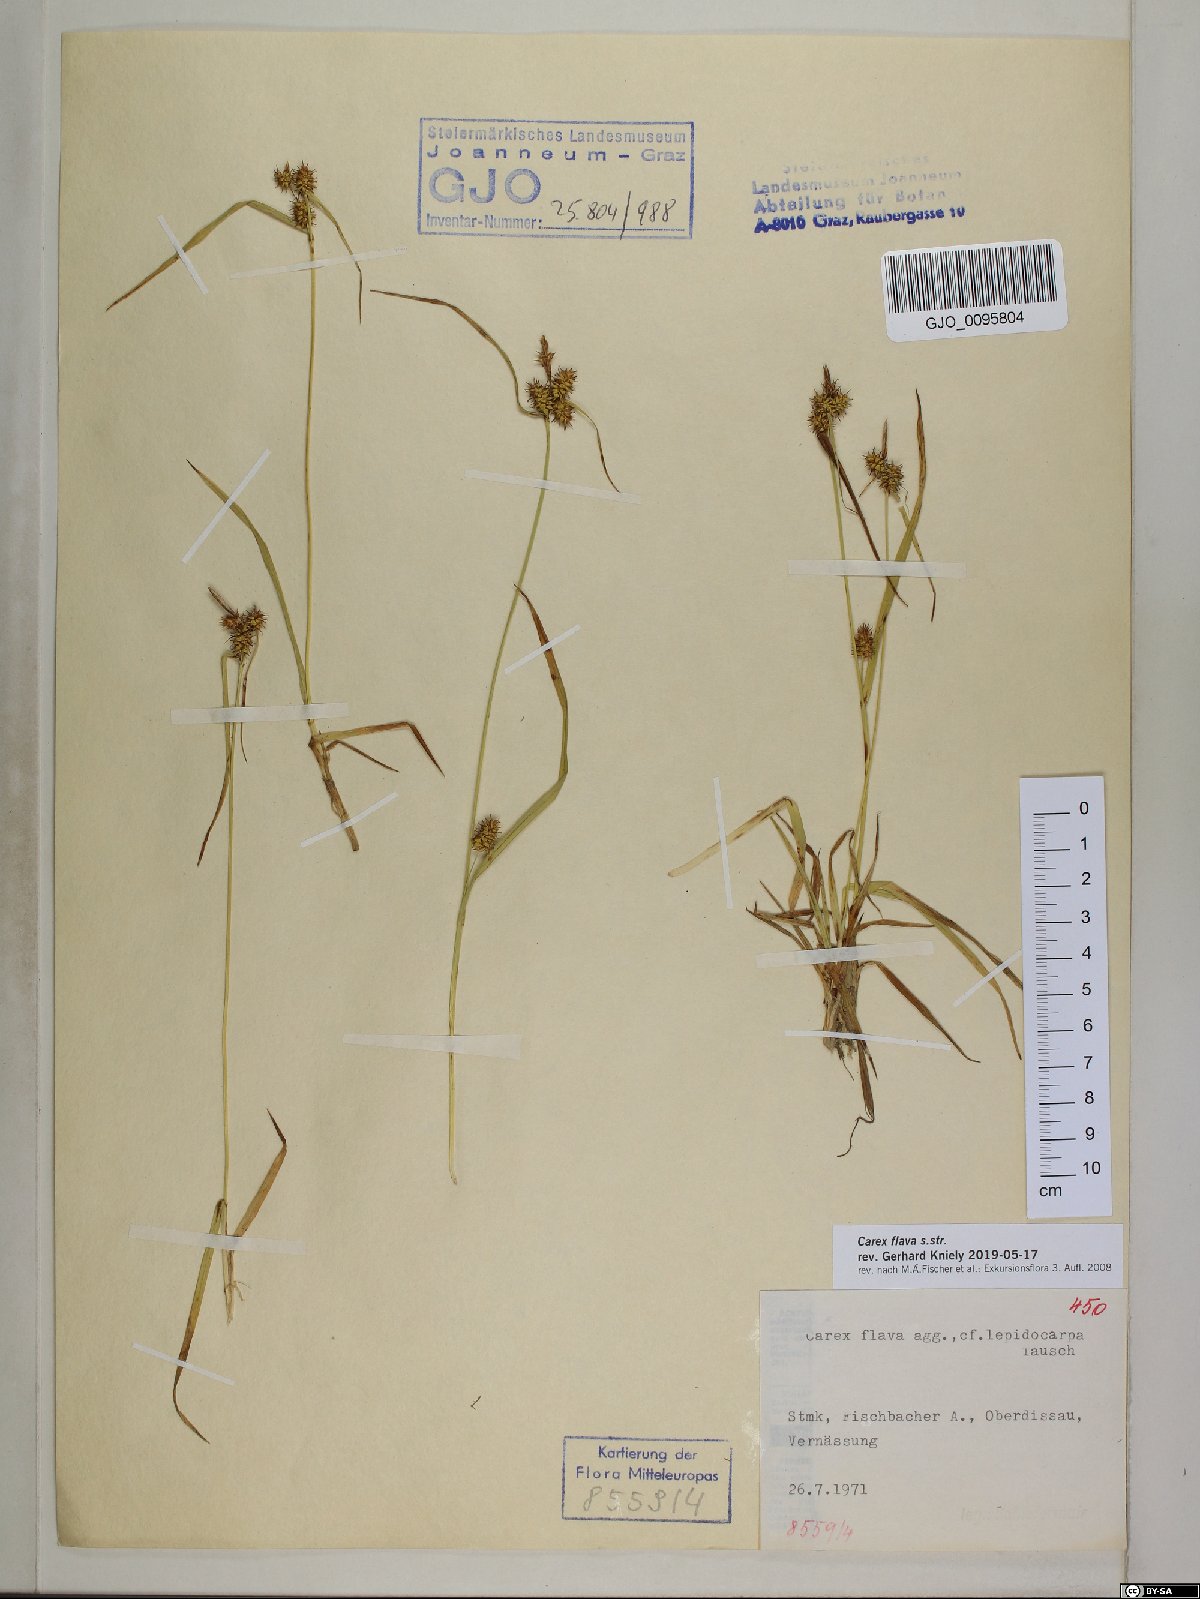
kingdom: Plantae
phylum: Tracheophyta
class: Liliopsida
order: Poales
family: Cyperaceae
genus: Carex
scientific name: Carex flava
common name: Large yellow-sedge
